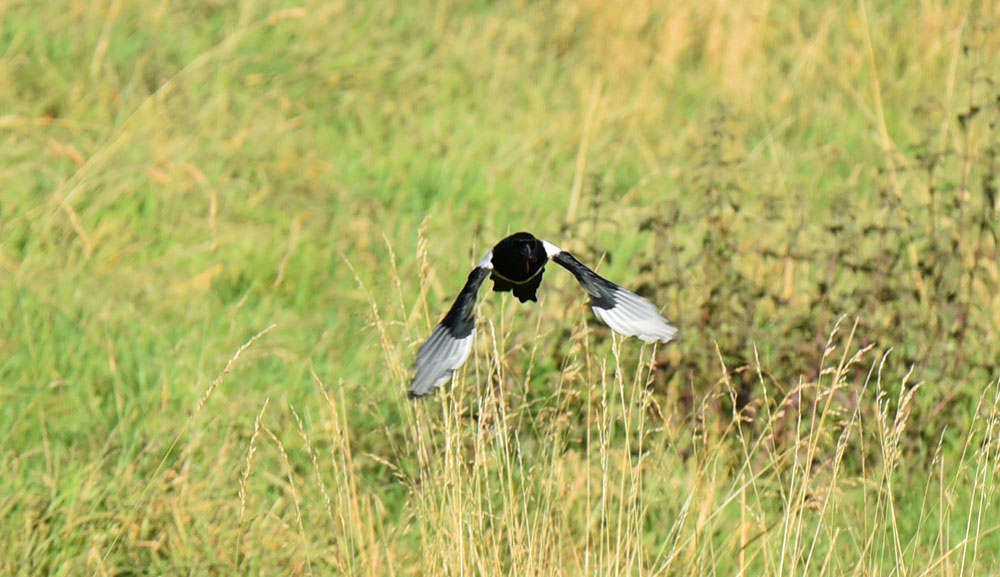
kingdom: Animalia
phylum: Chordata
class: Aves
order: Passeriformes
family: Corvidae
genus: Pica
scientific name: Pica pica
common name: Eurasian magpie
